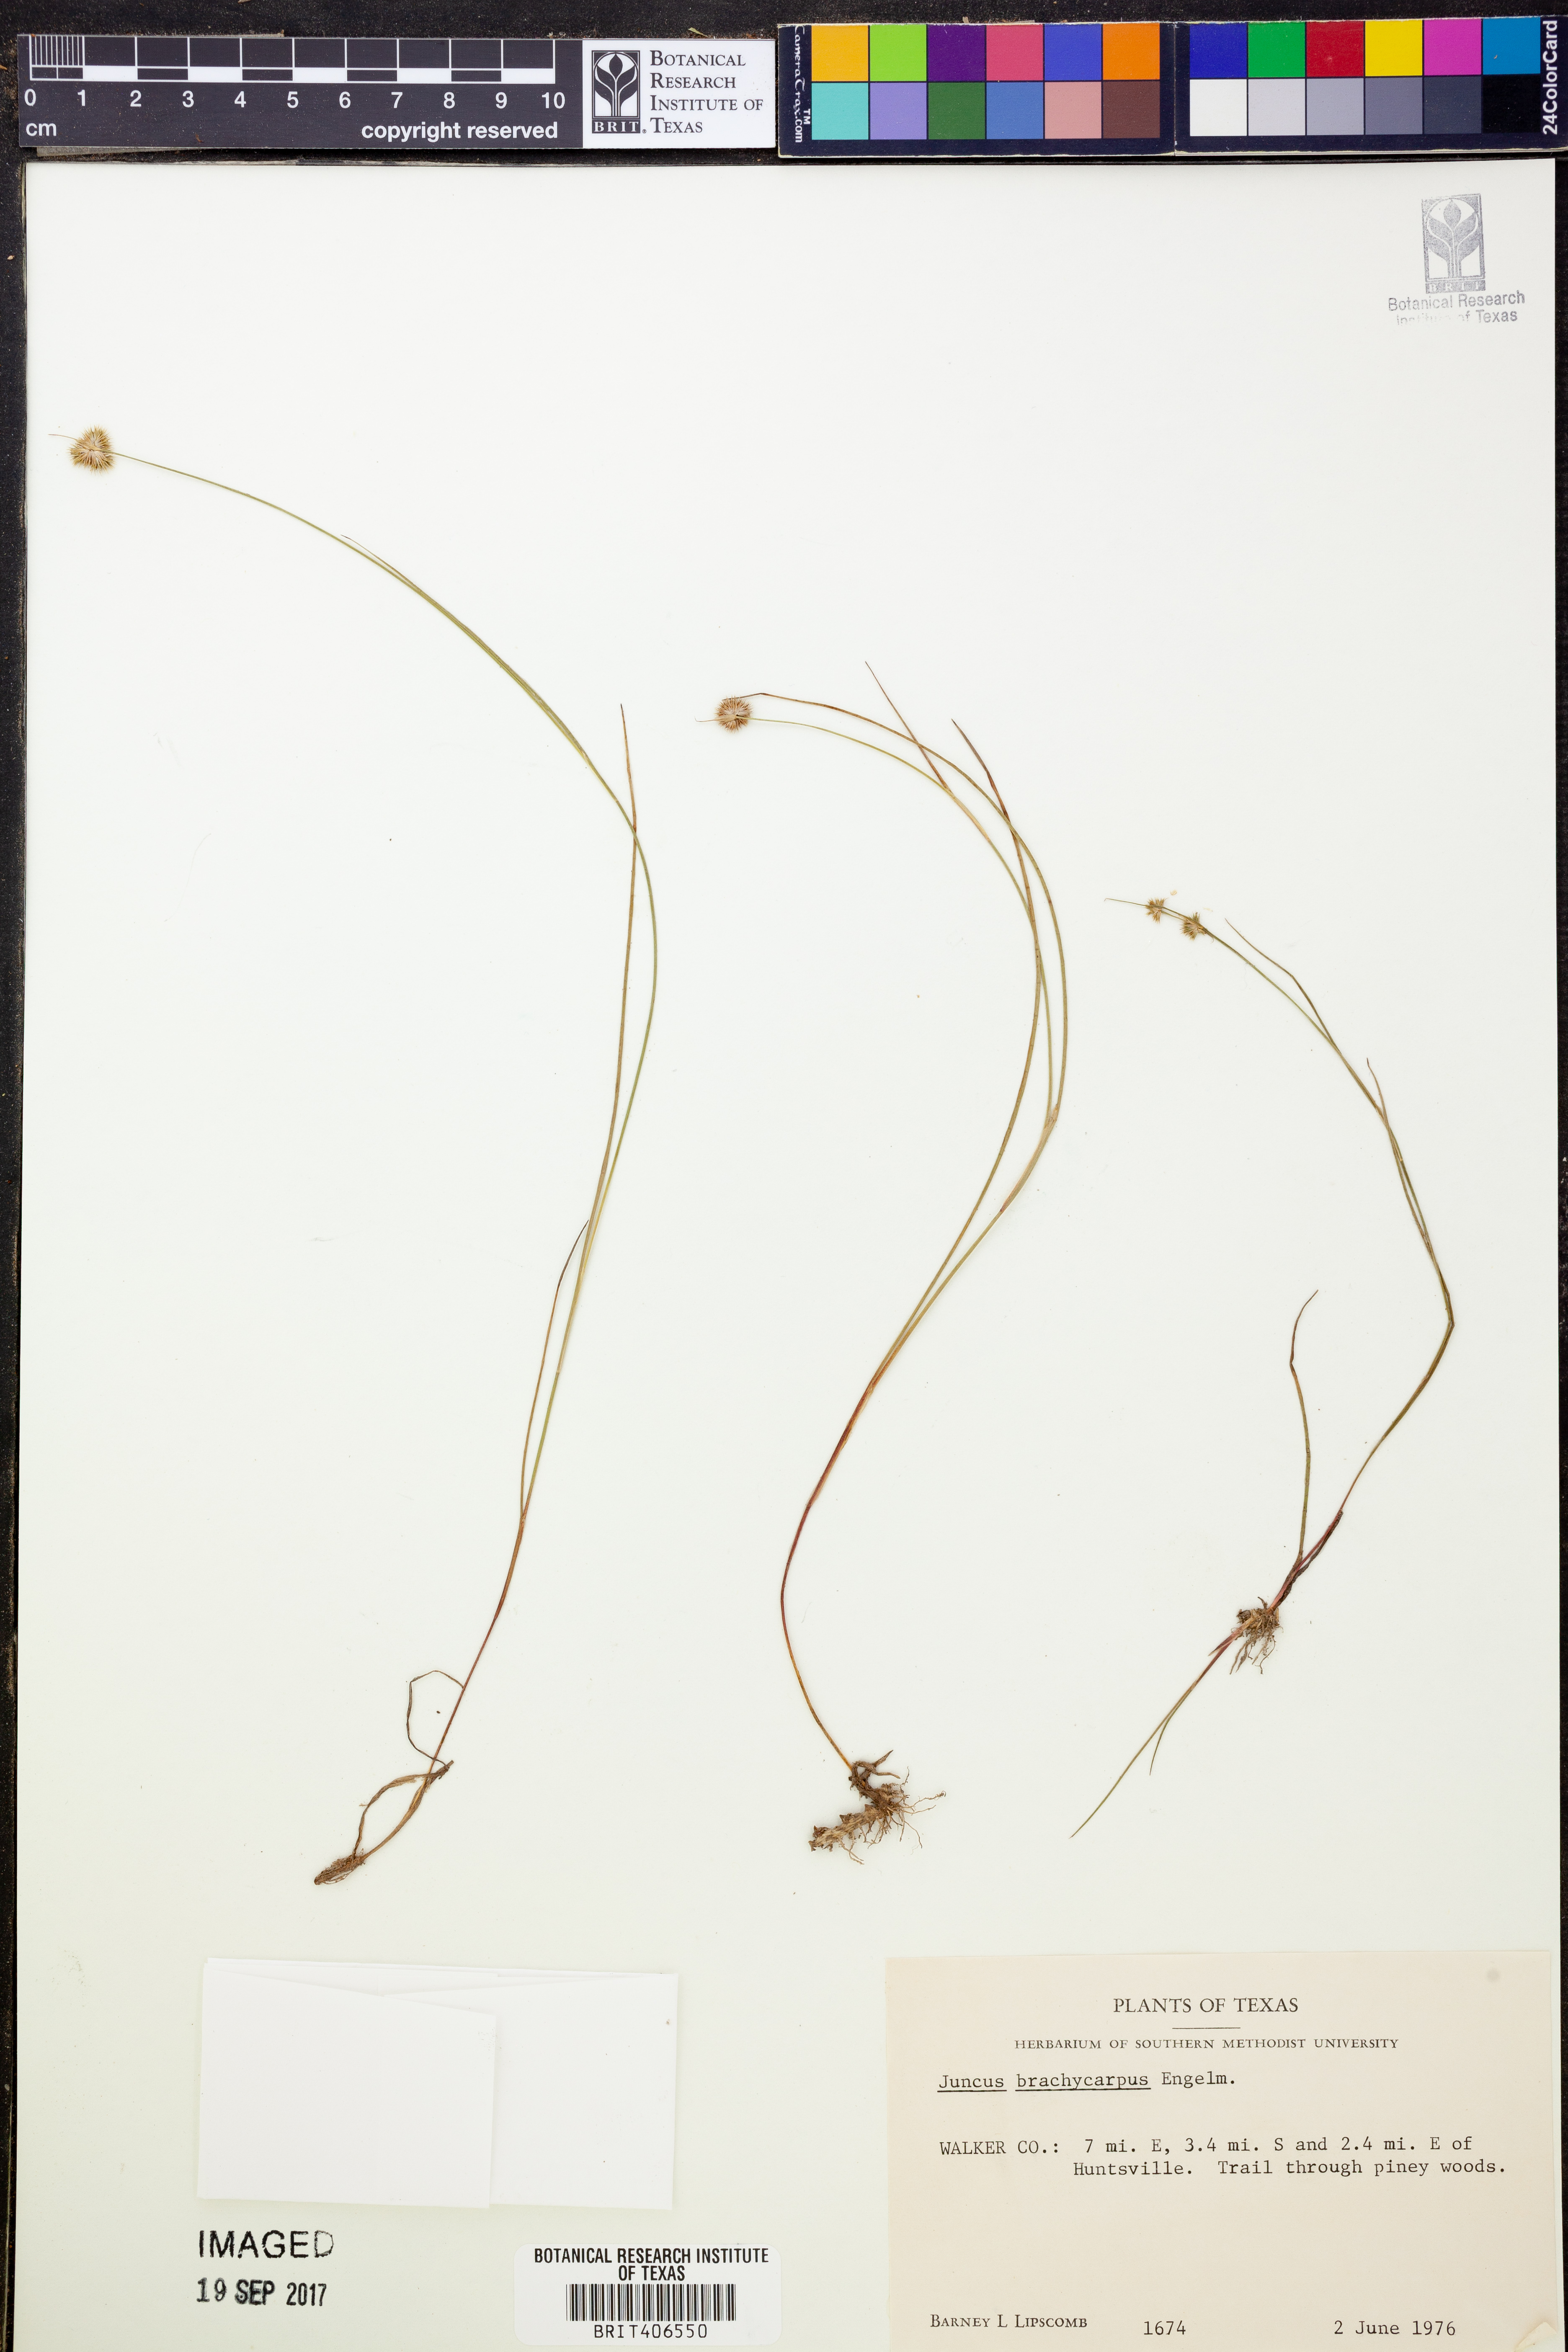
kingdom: Plantae
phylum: Tracheophyta
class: Liliopsida
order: Poales
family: Juncaceae
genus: Juncus
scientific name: Juncus brachycarpus
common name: Shore rush
